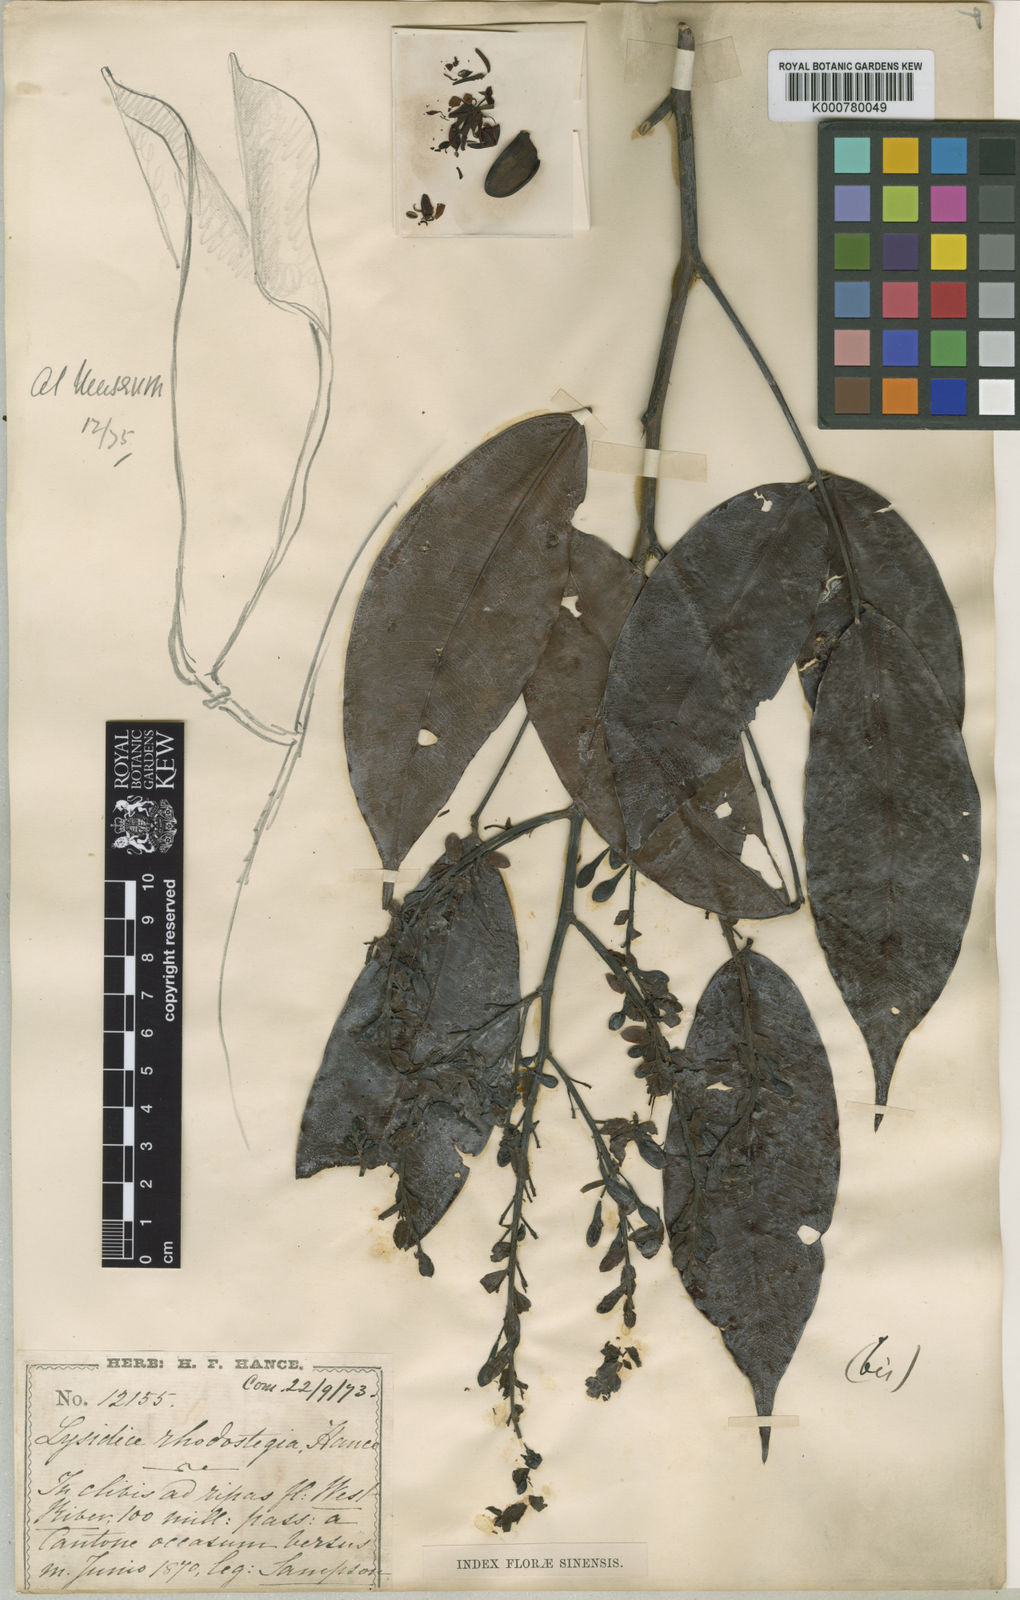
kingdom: Plantae
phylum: Tracheophyta
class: Magnoliopsida
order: Fabales
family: Fabaceae
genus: Lysidice
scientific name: Lysidice rhodostegia
